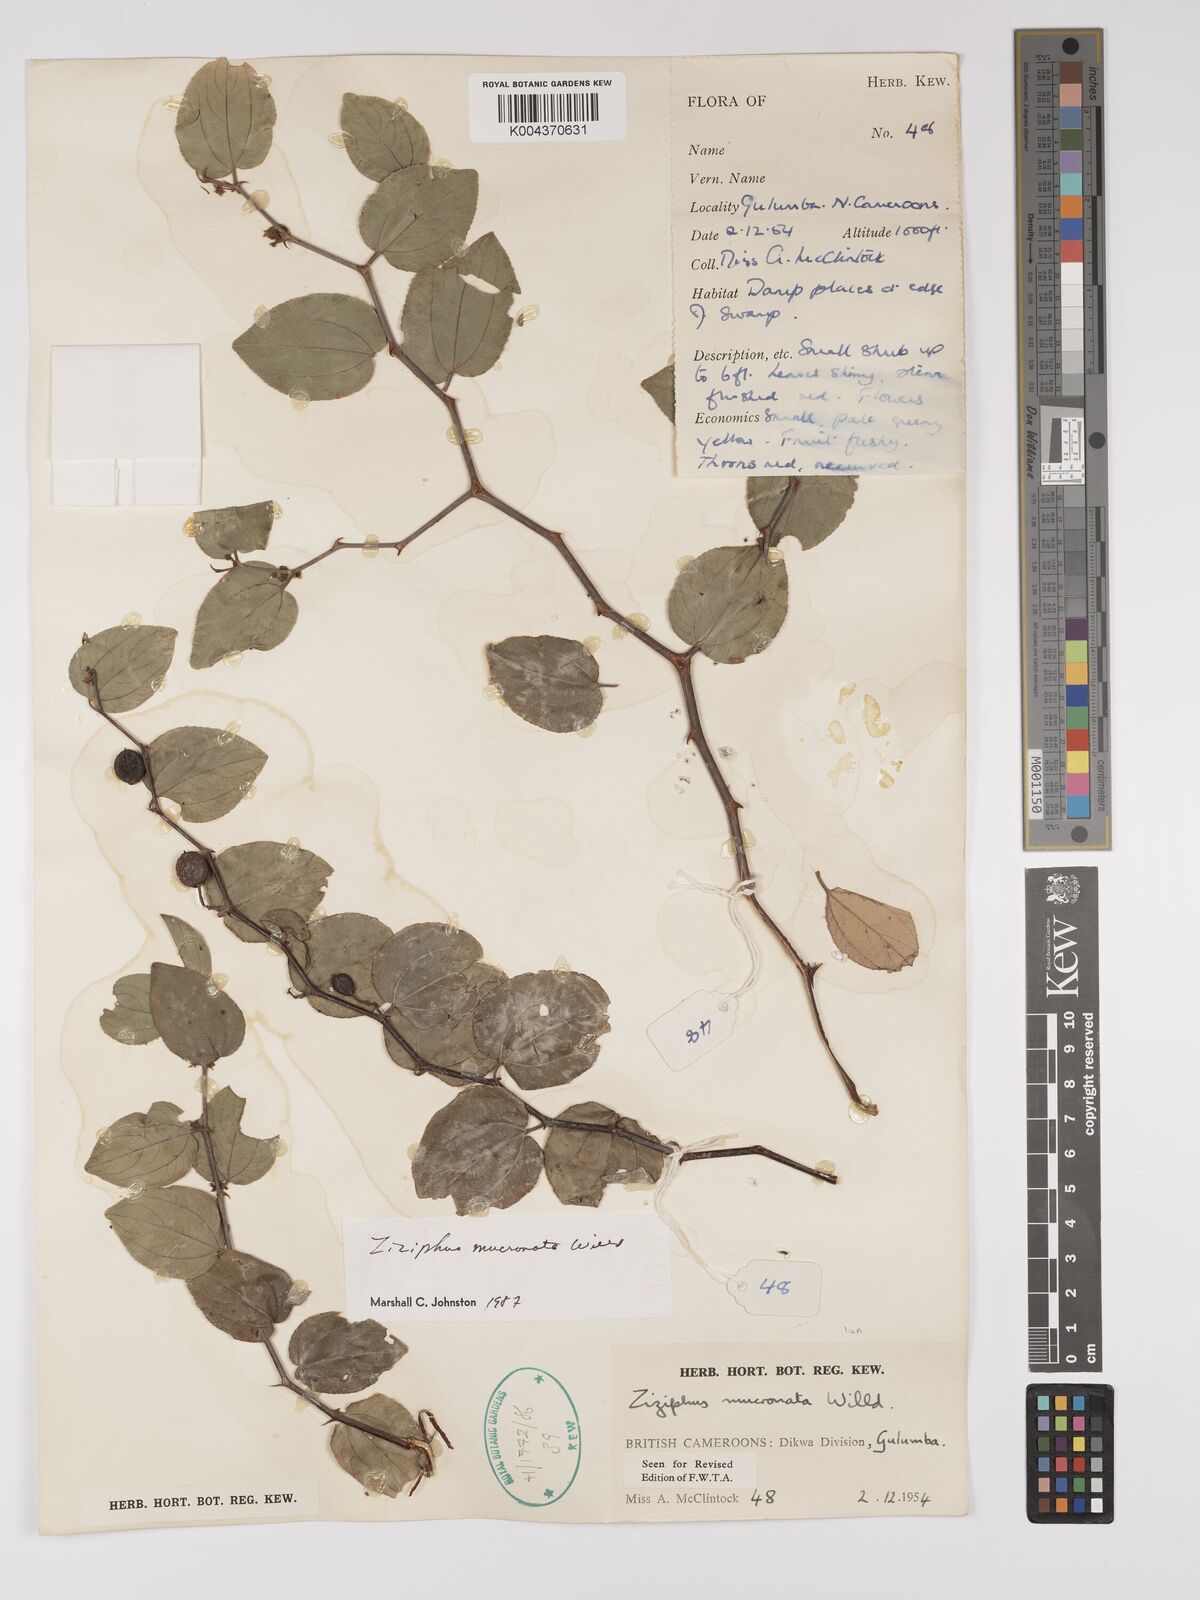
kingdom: Plantae
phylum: Tracheophyta
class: Magnoliopsida
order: Rosales
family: Rhamnaceae
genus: Ziziphus
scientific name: Ziziphus mucronata
